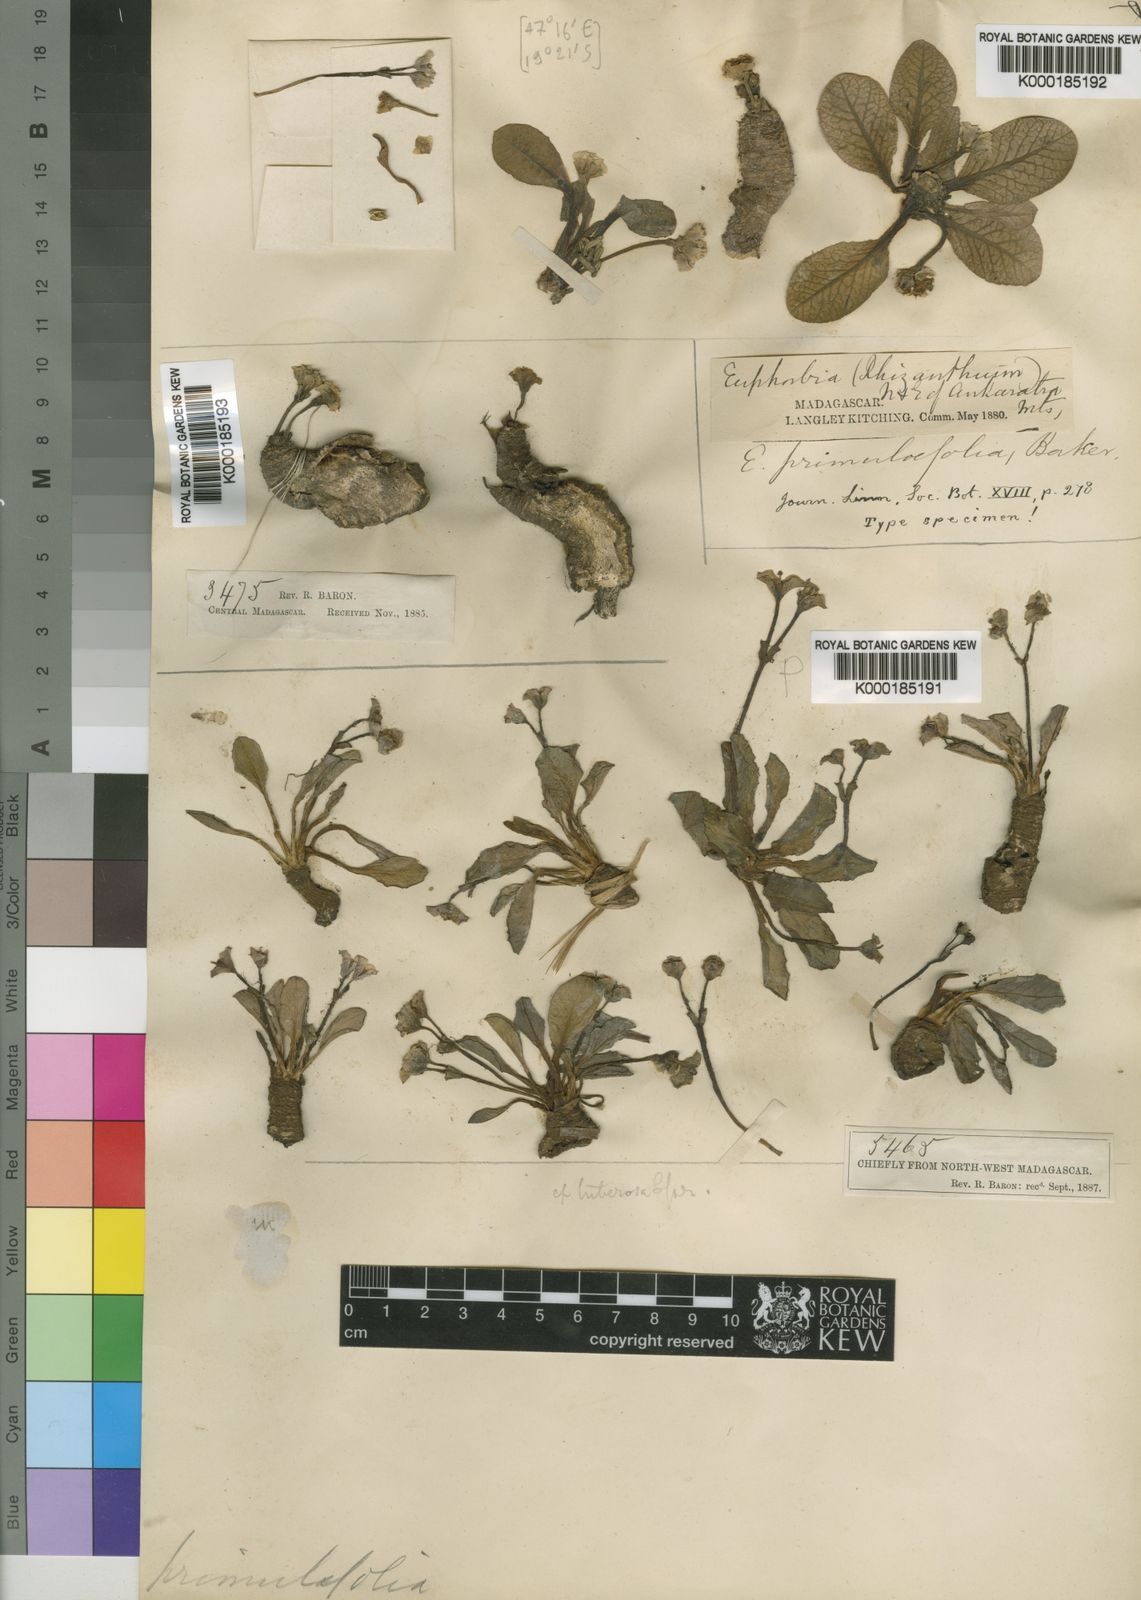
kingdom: Plantae
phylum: Tracheophyta
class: Magnoliopsida
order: Malpighiales
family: Euphorbiaceae
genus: Euphorbia
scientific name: Euphorbia primulifolia
